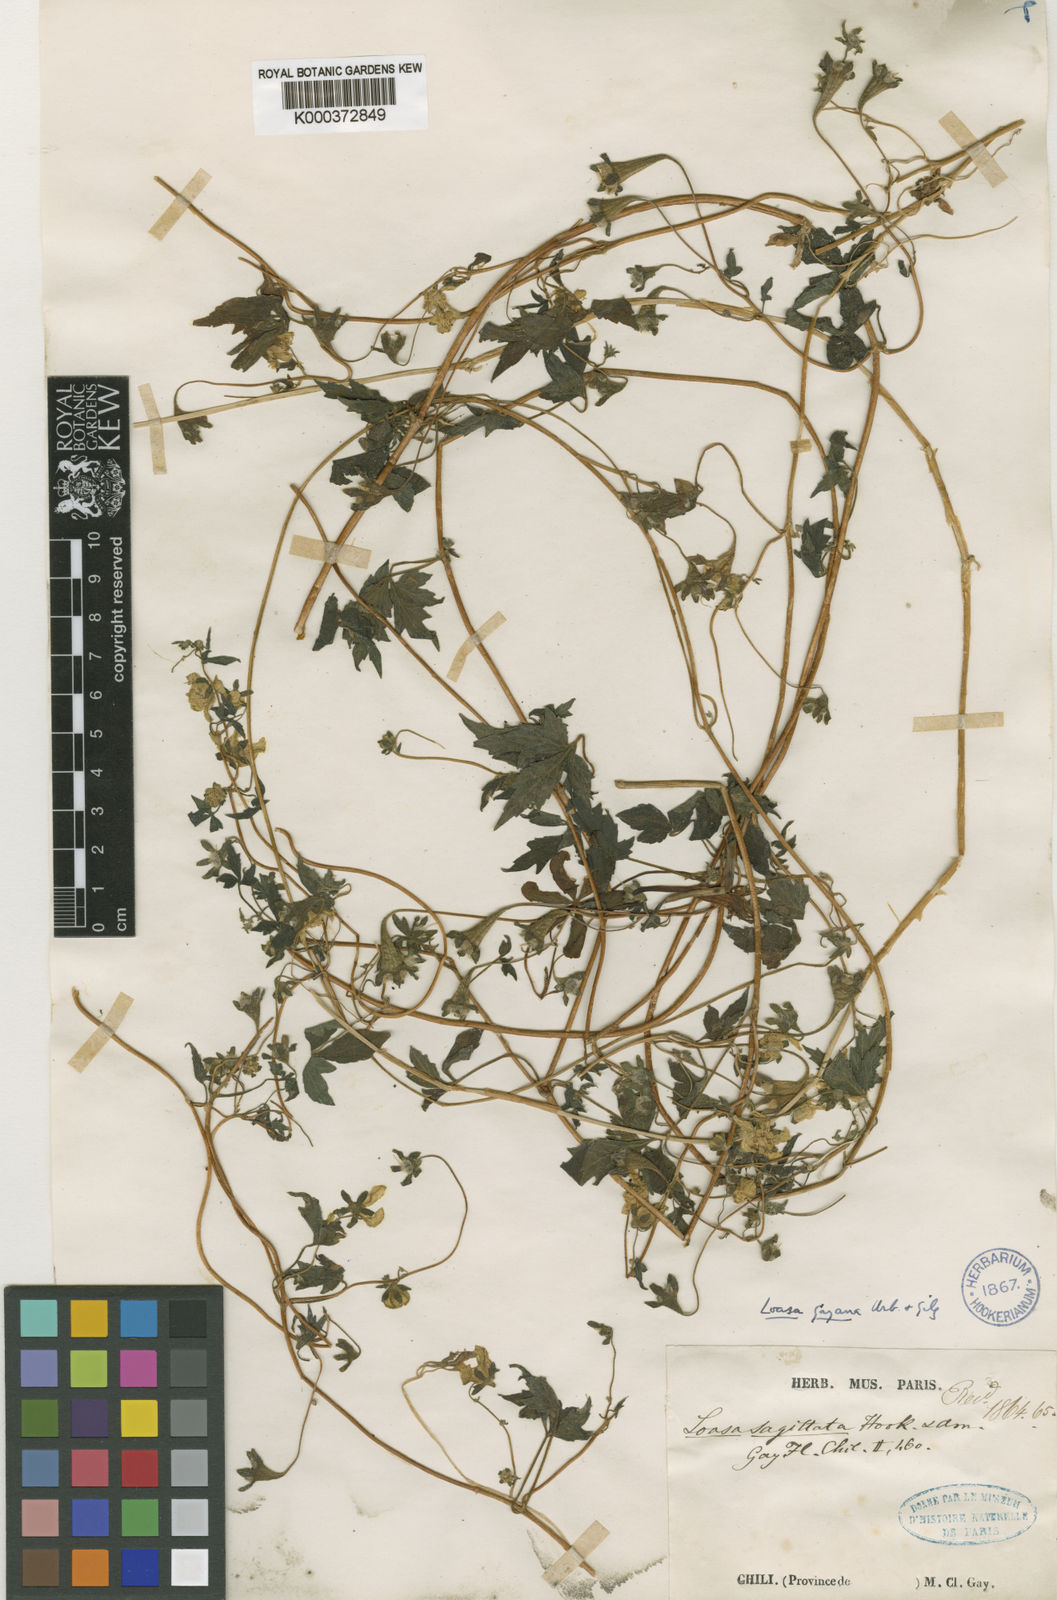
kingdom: Plantae
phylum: Tracheophyta
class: Magnoliopsida
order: Cornales
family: Loasaceae
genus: Loasa
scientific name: Loasa
